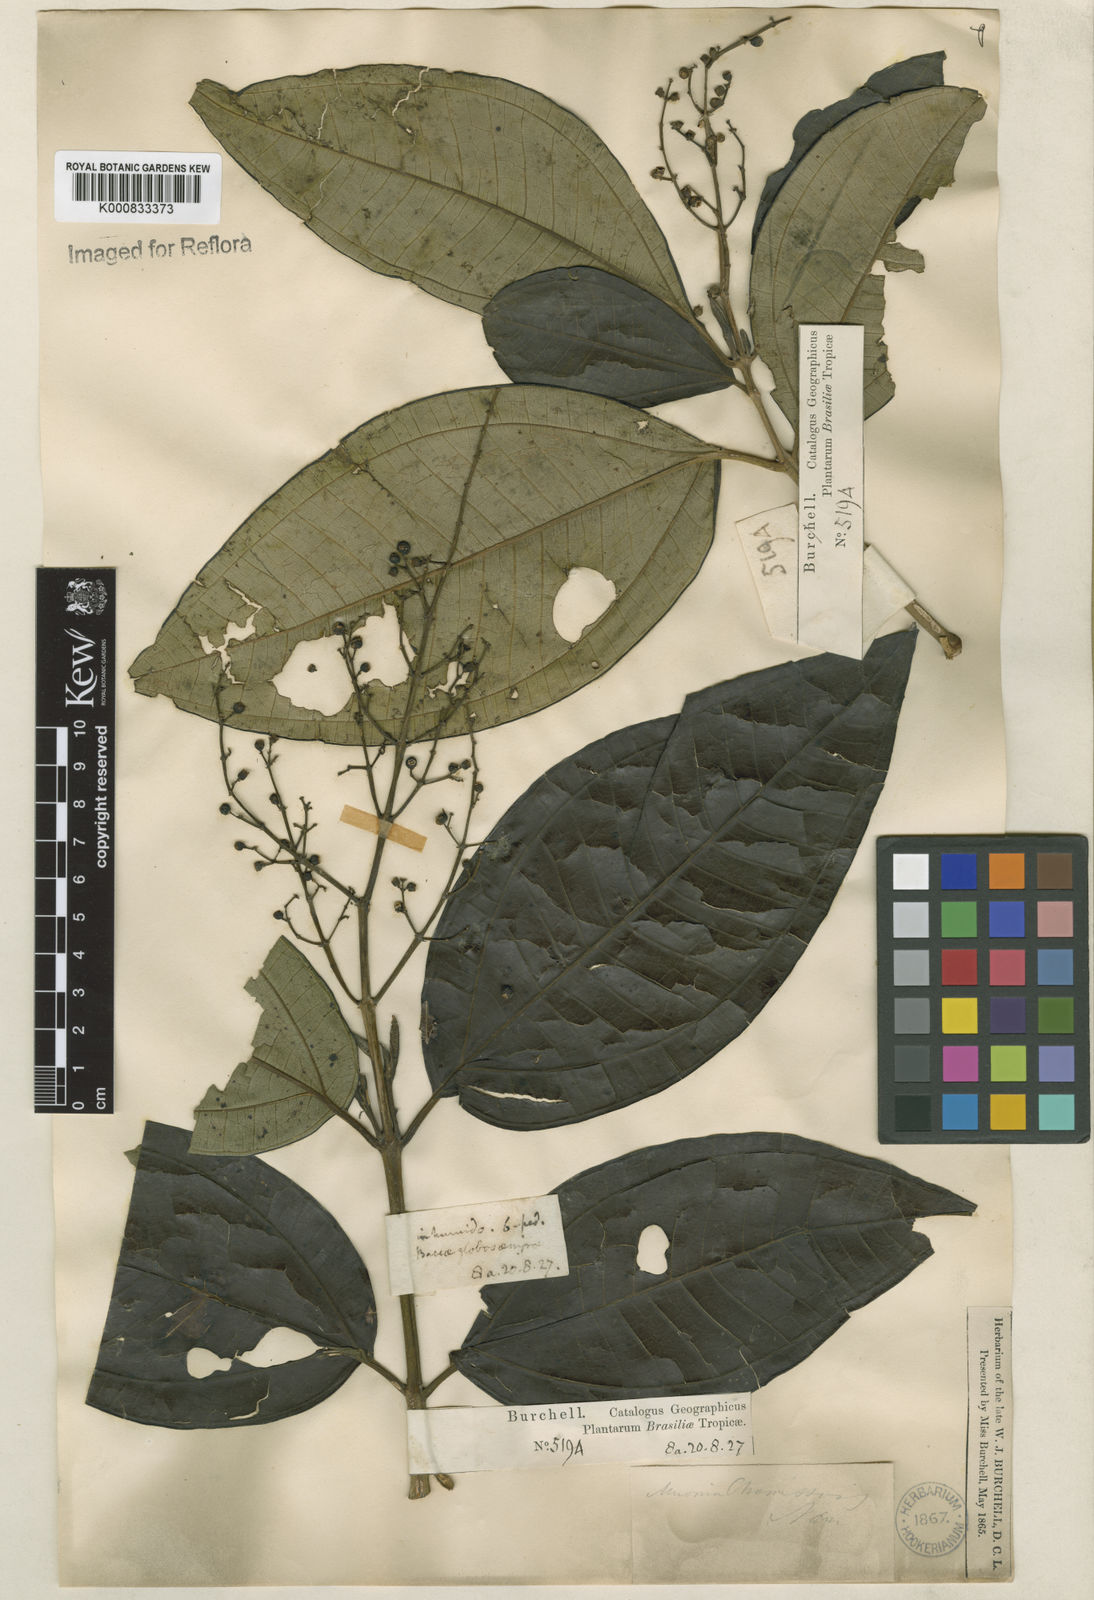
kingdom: Plantae
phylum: Tracheophyta
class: Magnoliopsida
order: Myrtales
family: Melastomataceae
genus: Miconia
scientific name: Miconia chamissois
